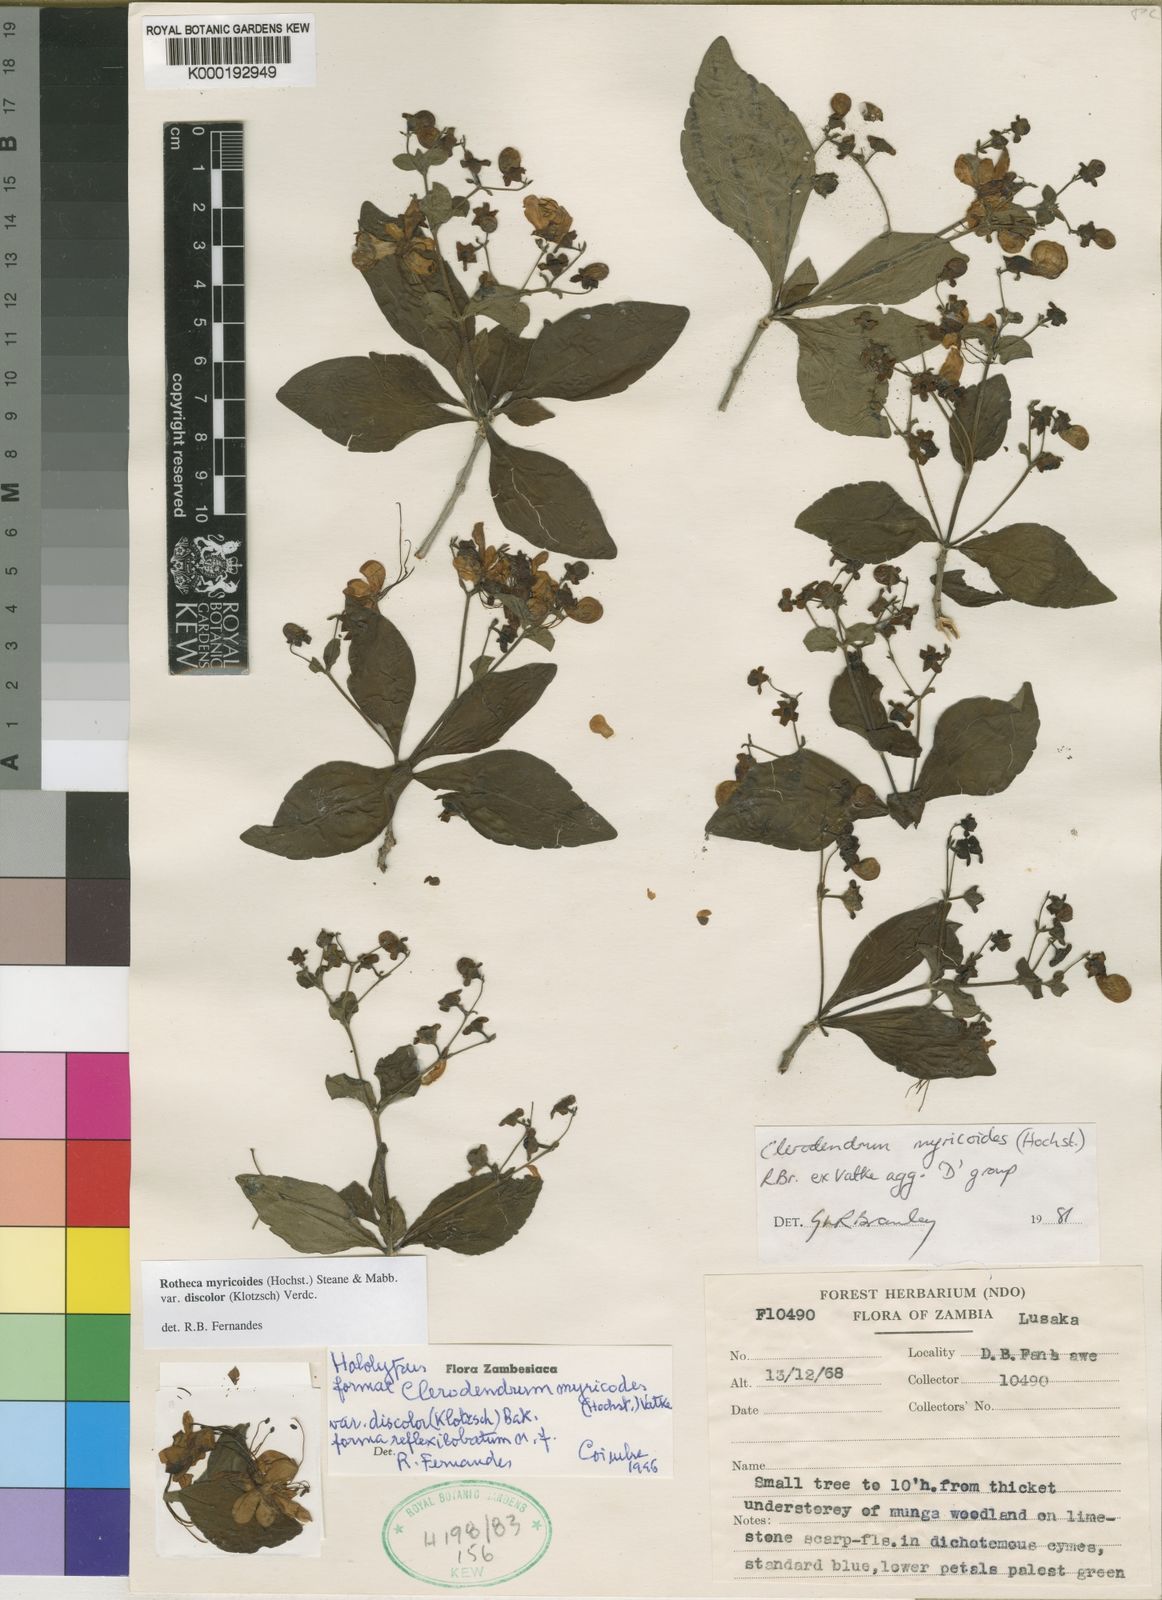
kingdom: Plantae
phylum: Tracheophyta
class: Magnoliopsida
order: Lamiales
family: Lamiaceae
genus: Rotheca
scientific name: Rotheca myricoides
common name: Cats-whiskers
